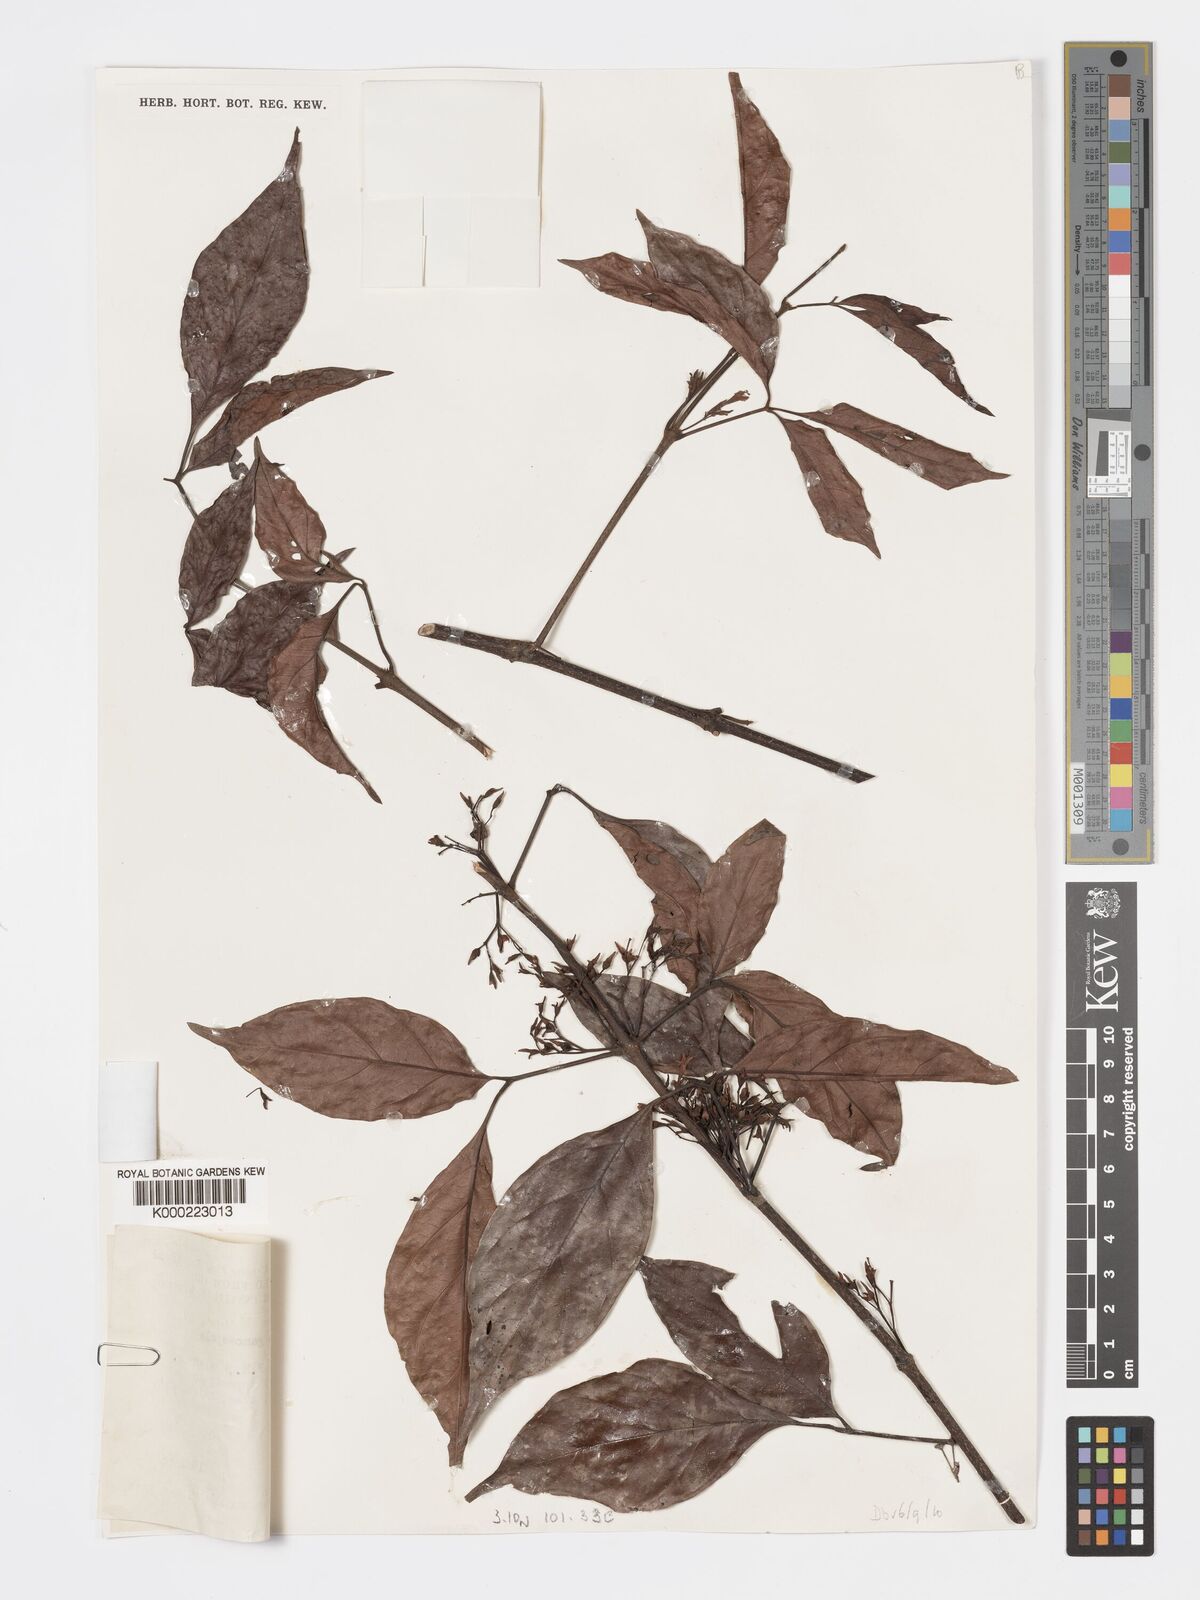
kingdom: Plantae
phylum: Tracheophyta
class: Magnoliopsida
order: Lamiales
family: Lamiaceae
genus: Vitex
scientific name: Vitex gamosepala
